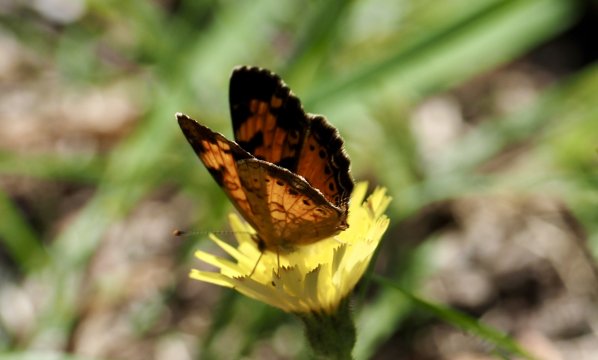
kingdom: Animalia
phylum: Arthropoda
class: Insecta
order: Lepidoptera
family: Nymphalidae
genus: Phyciodes
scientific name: Phyciodes tharos
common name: Northern Crescent
